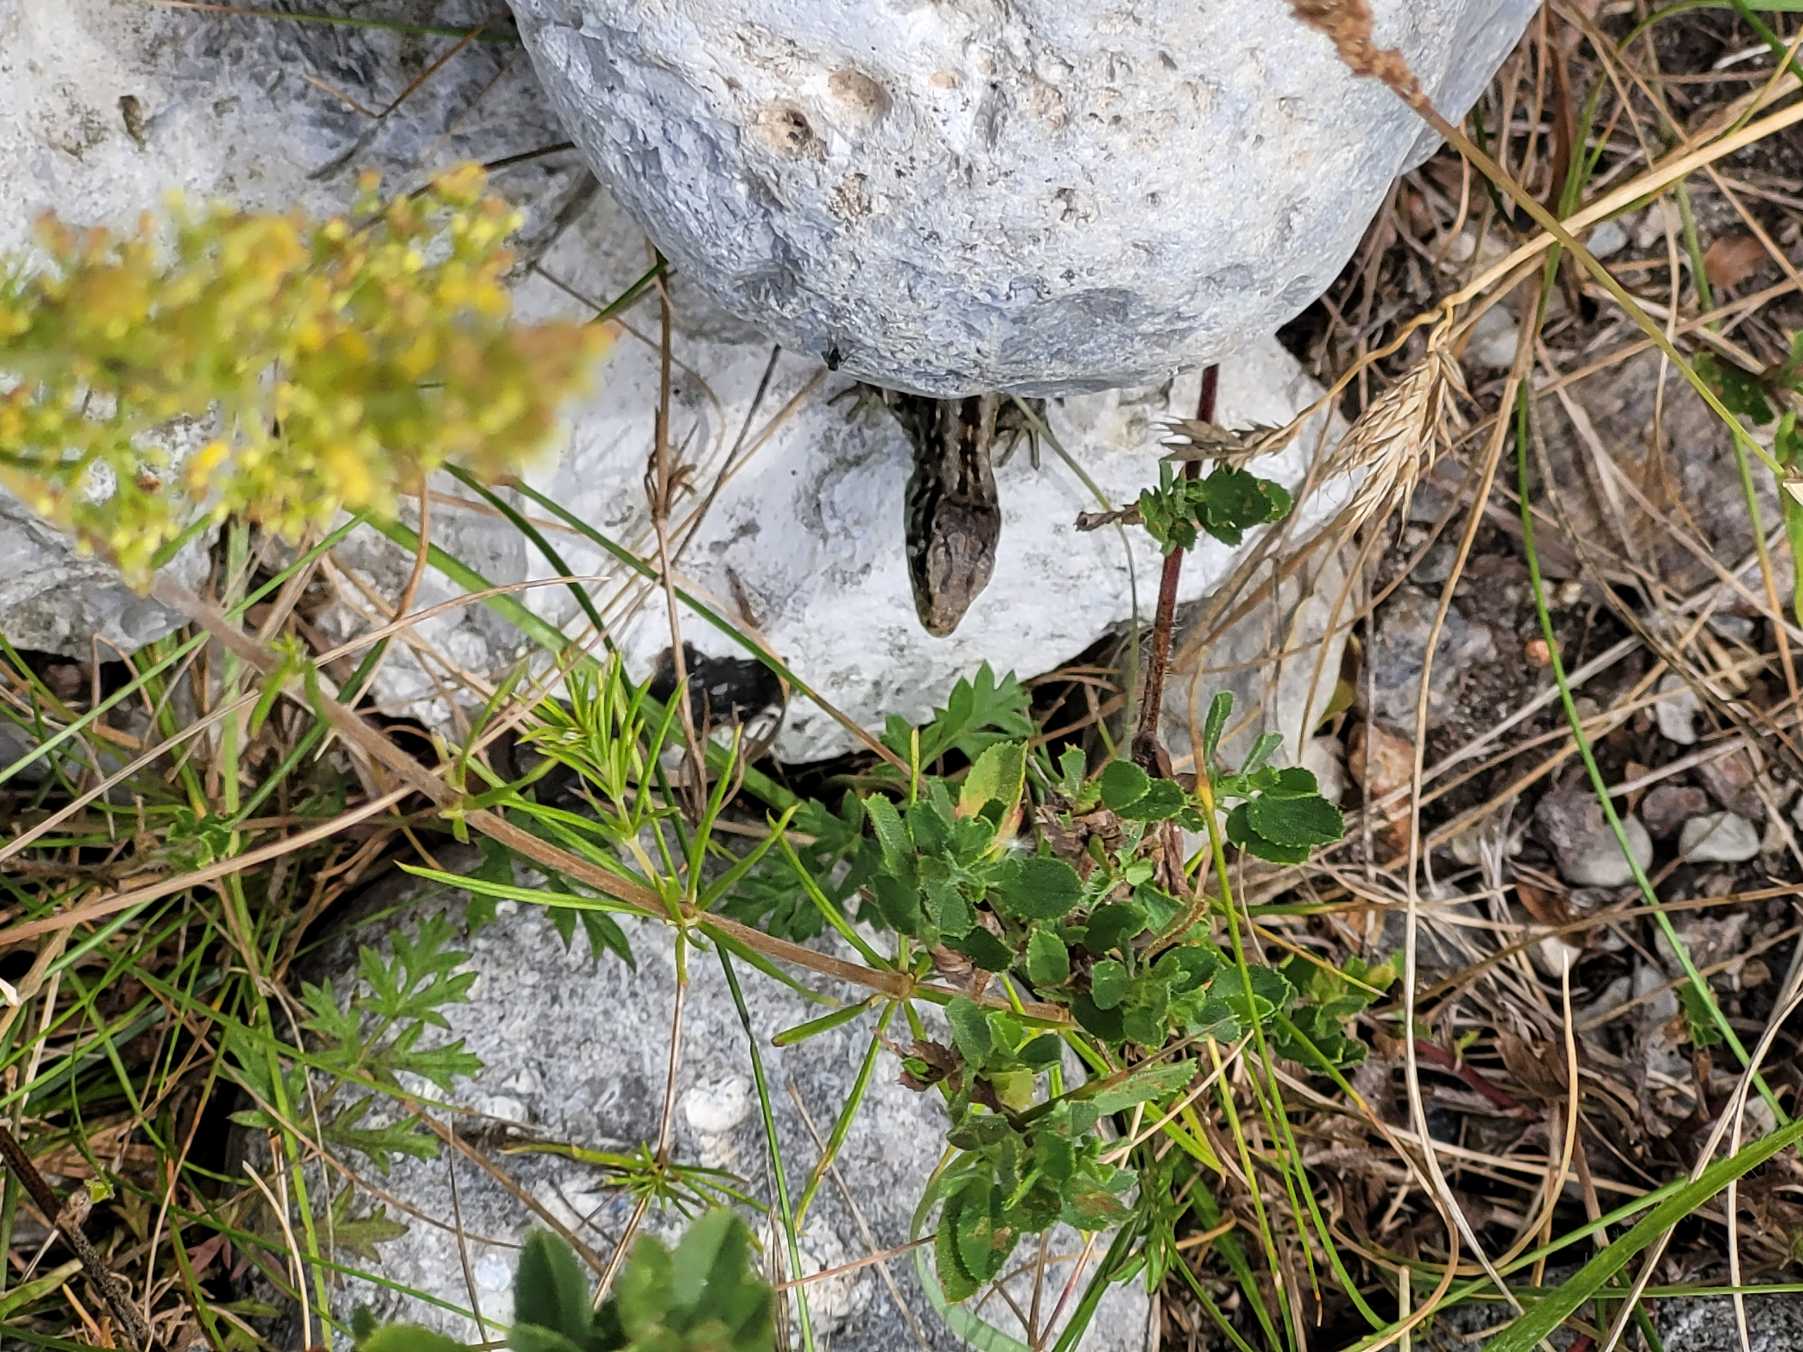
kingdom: Animalia
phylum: Chordata
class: Squamata
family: Lacertidae
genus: Lacerta
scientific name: Lacerta agilis
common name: Markfirben
